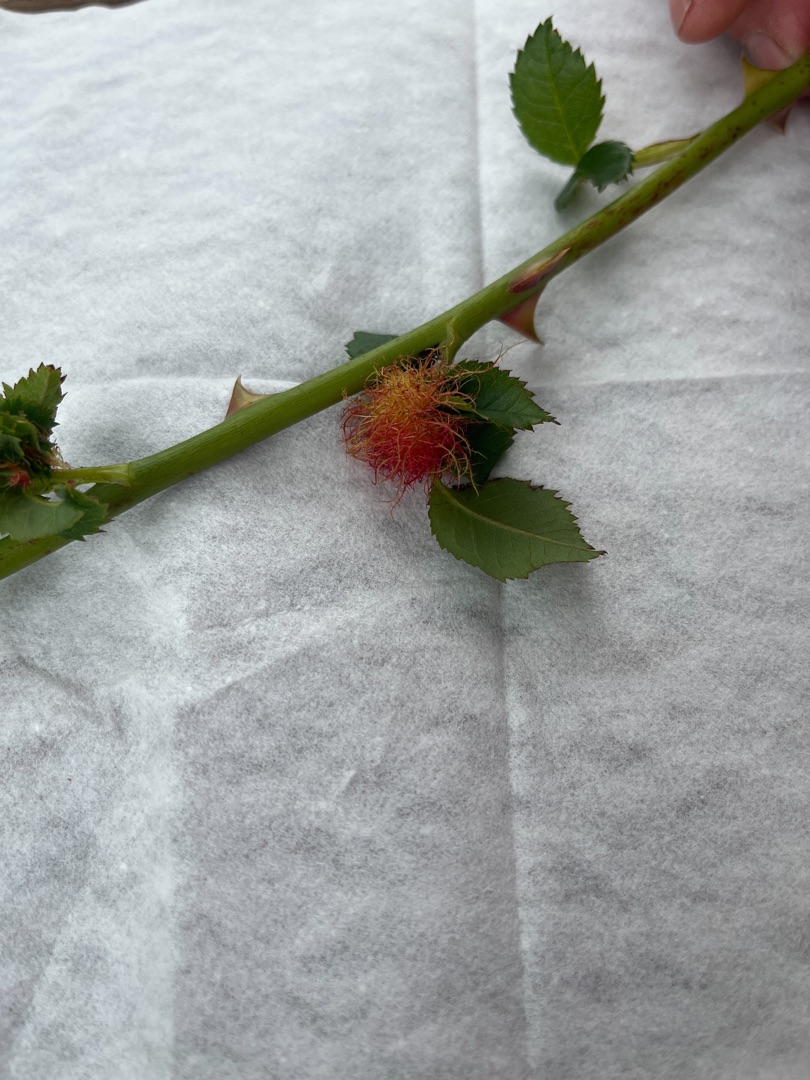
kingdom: Animalia
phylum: Arthropoda
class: Insecta
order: Hymenoptera
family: Cynipidae
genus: Diplolepis
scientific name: Diplolepis rosae
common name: Bedeguargalhveps
